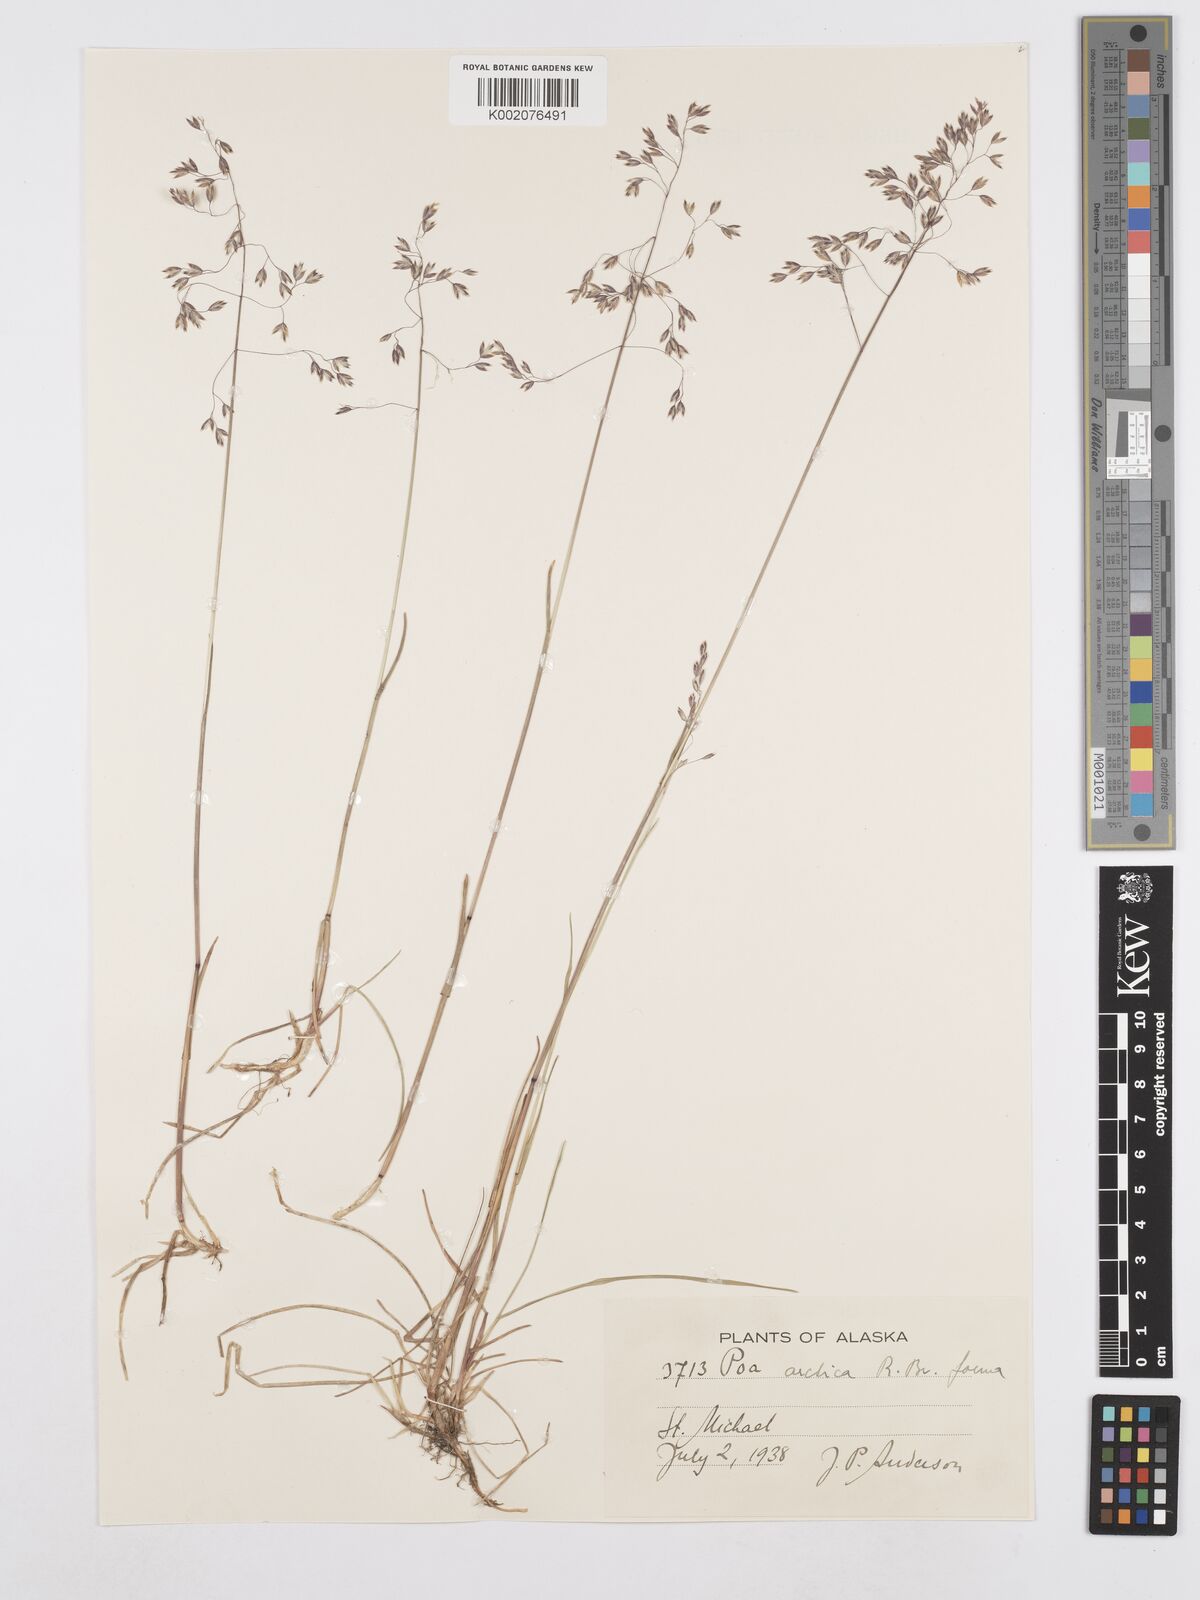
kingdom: Plantae
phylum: Tracheophyta
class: Liliopsida
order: Poales
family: Poaceae
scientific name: Poaceae
